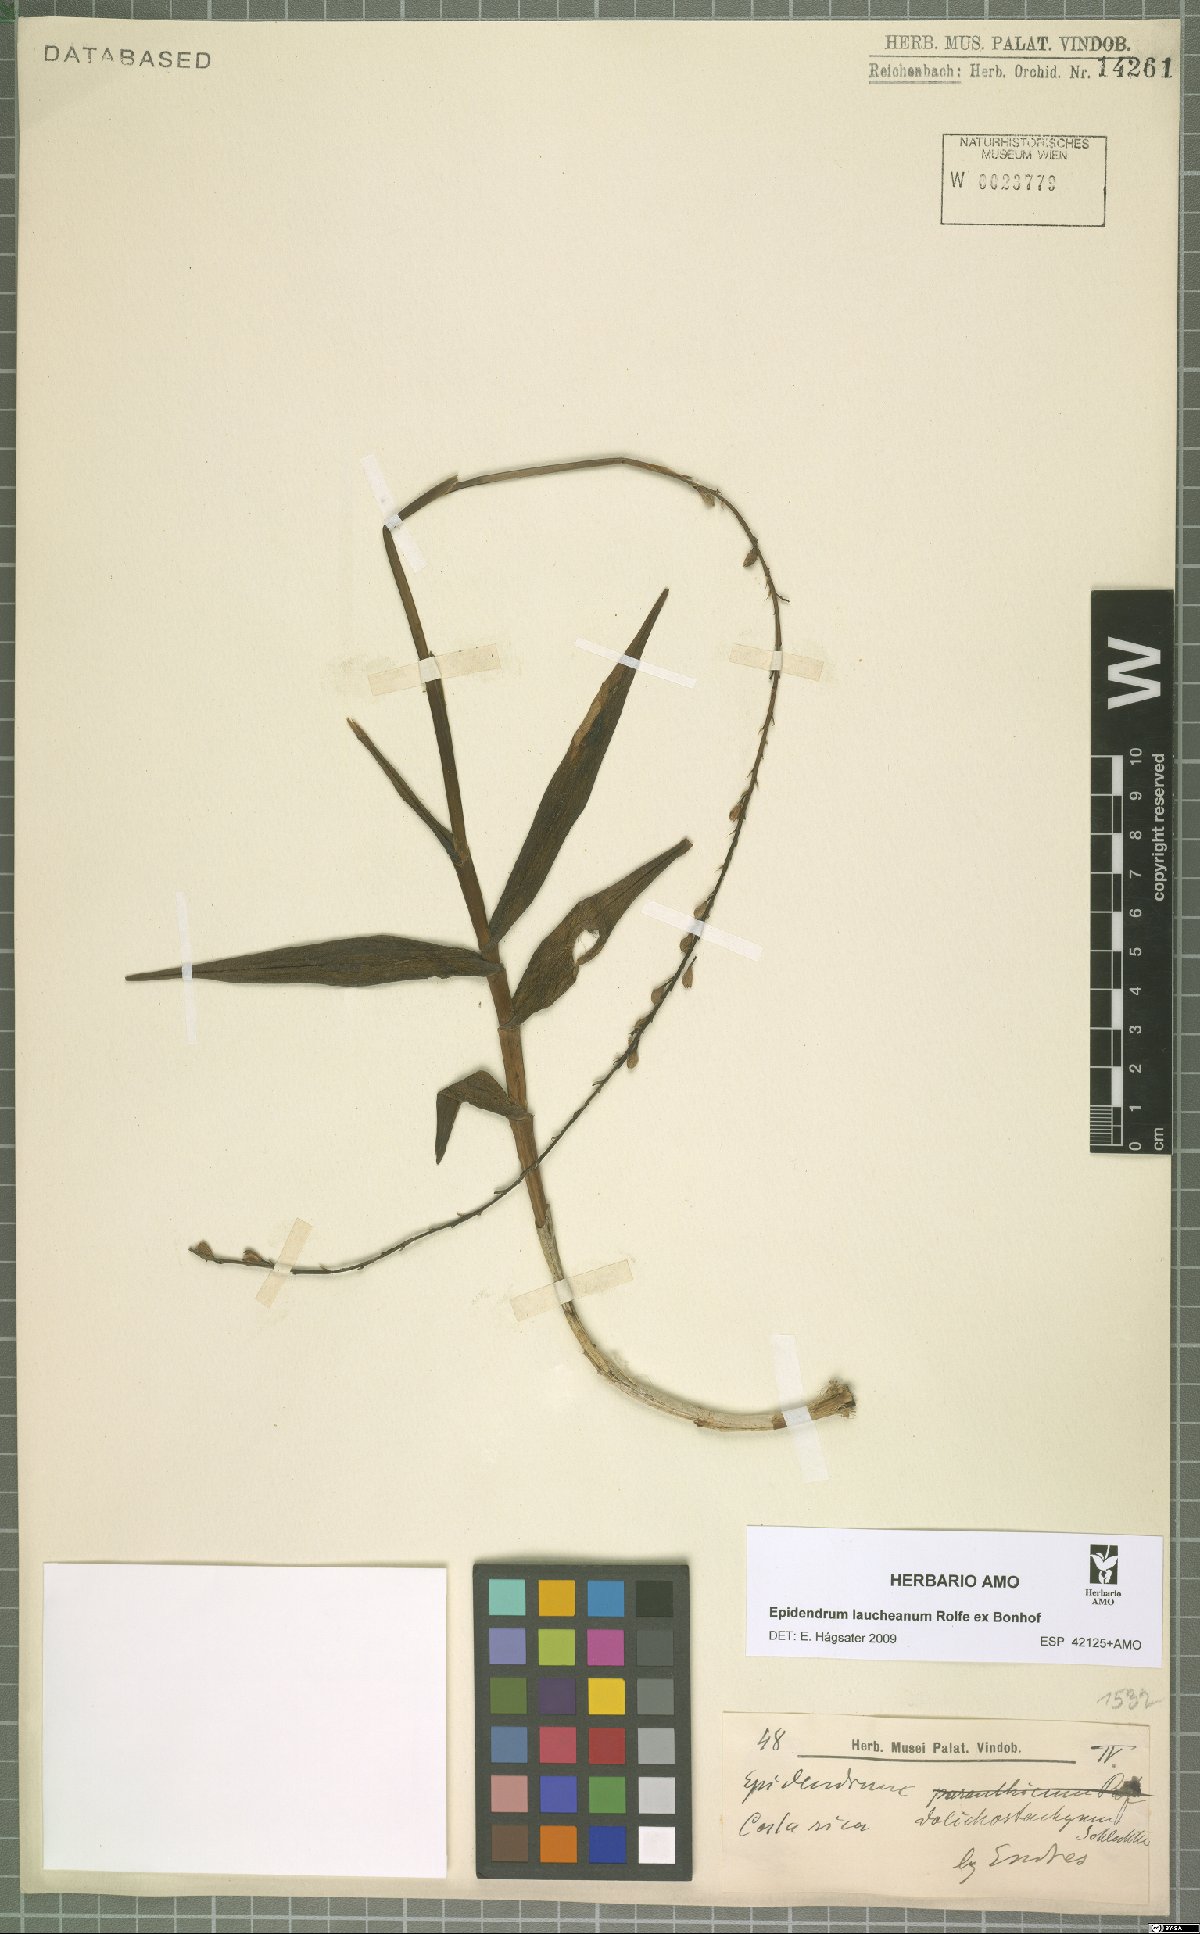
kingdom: Plantae
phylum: Tracheophyta
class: Liliopsida
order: Asparagales
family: Orchidaceae
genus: Epidendrum
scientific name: Epidendrum laucheanum
